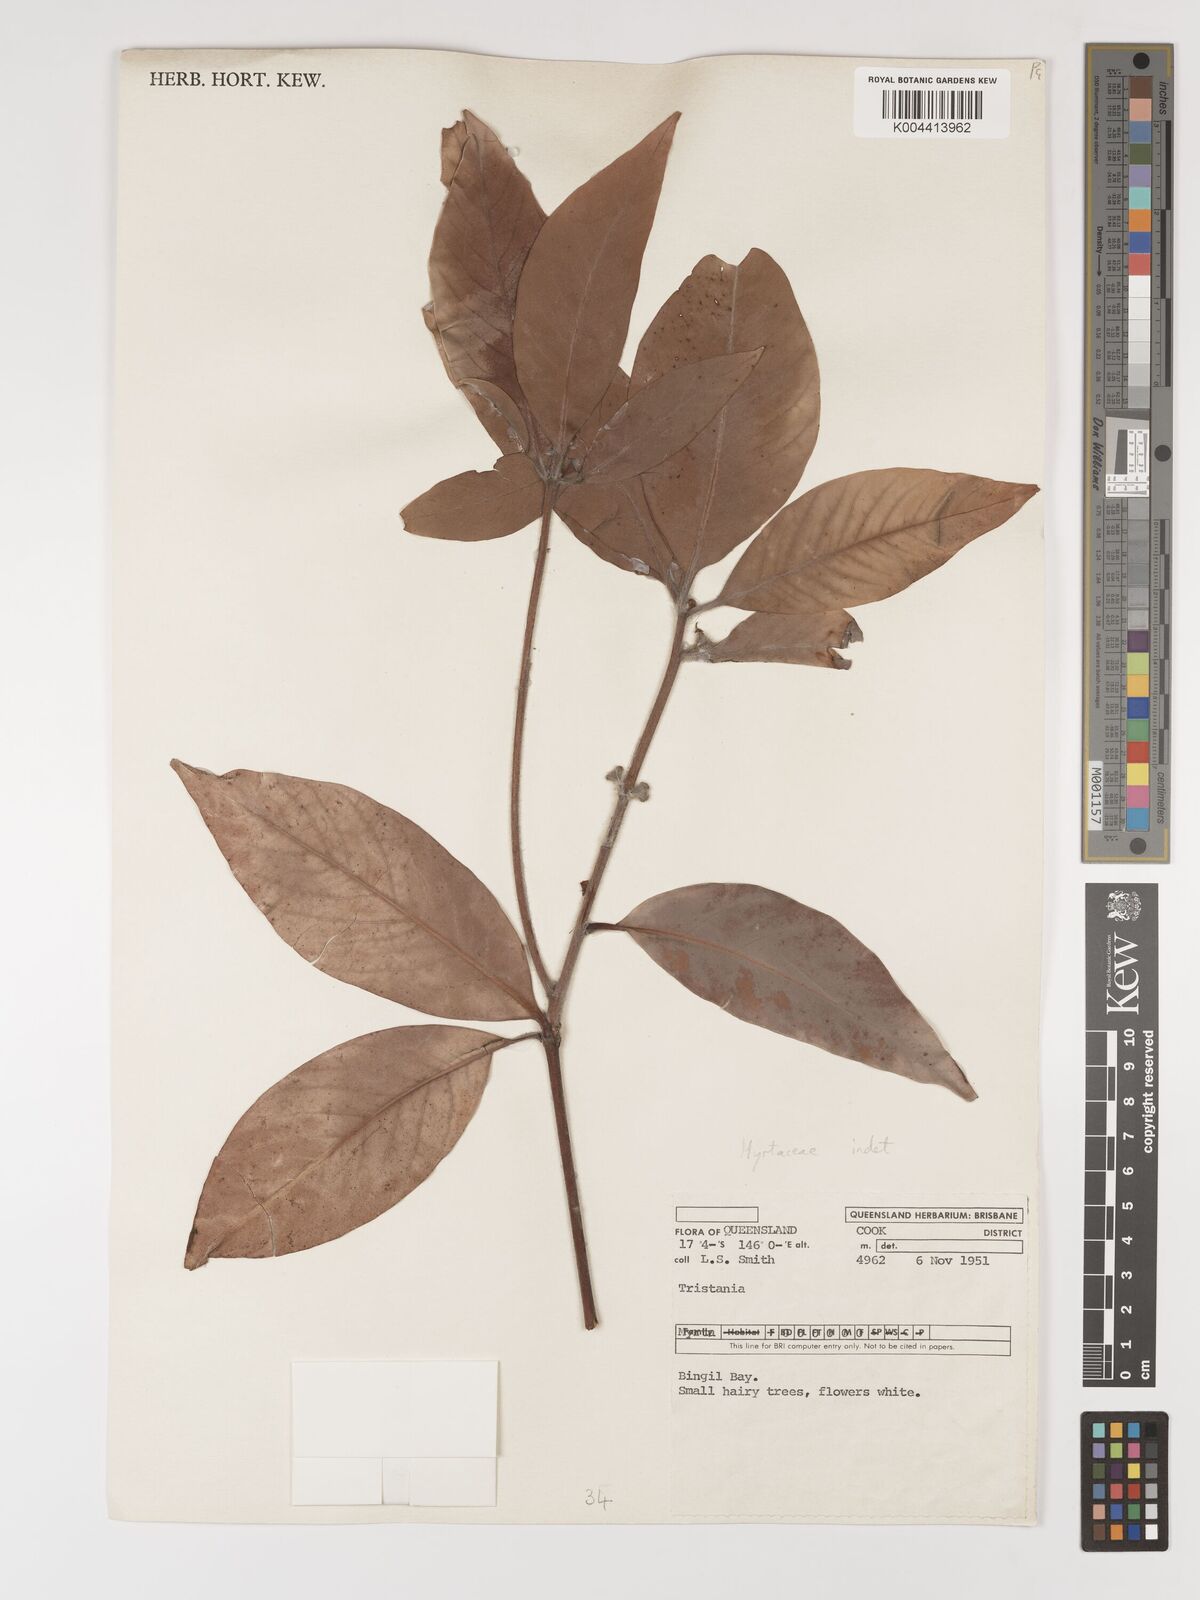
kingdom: Plantae
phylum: Tracheophyta
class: Magnoliopsida
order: Myrtales
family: Myrtaceae
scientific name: Myrtaceae
